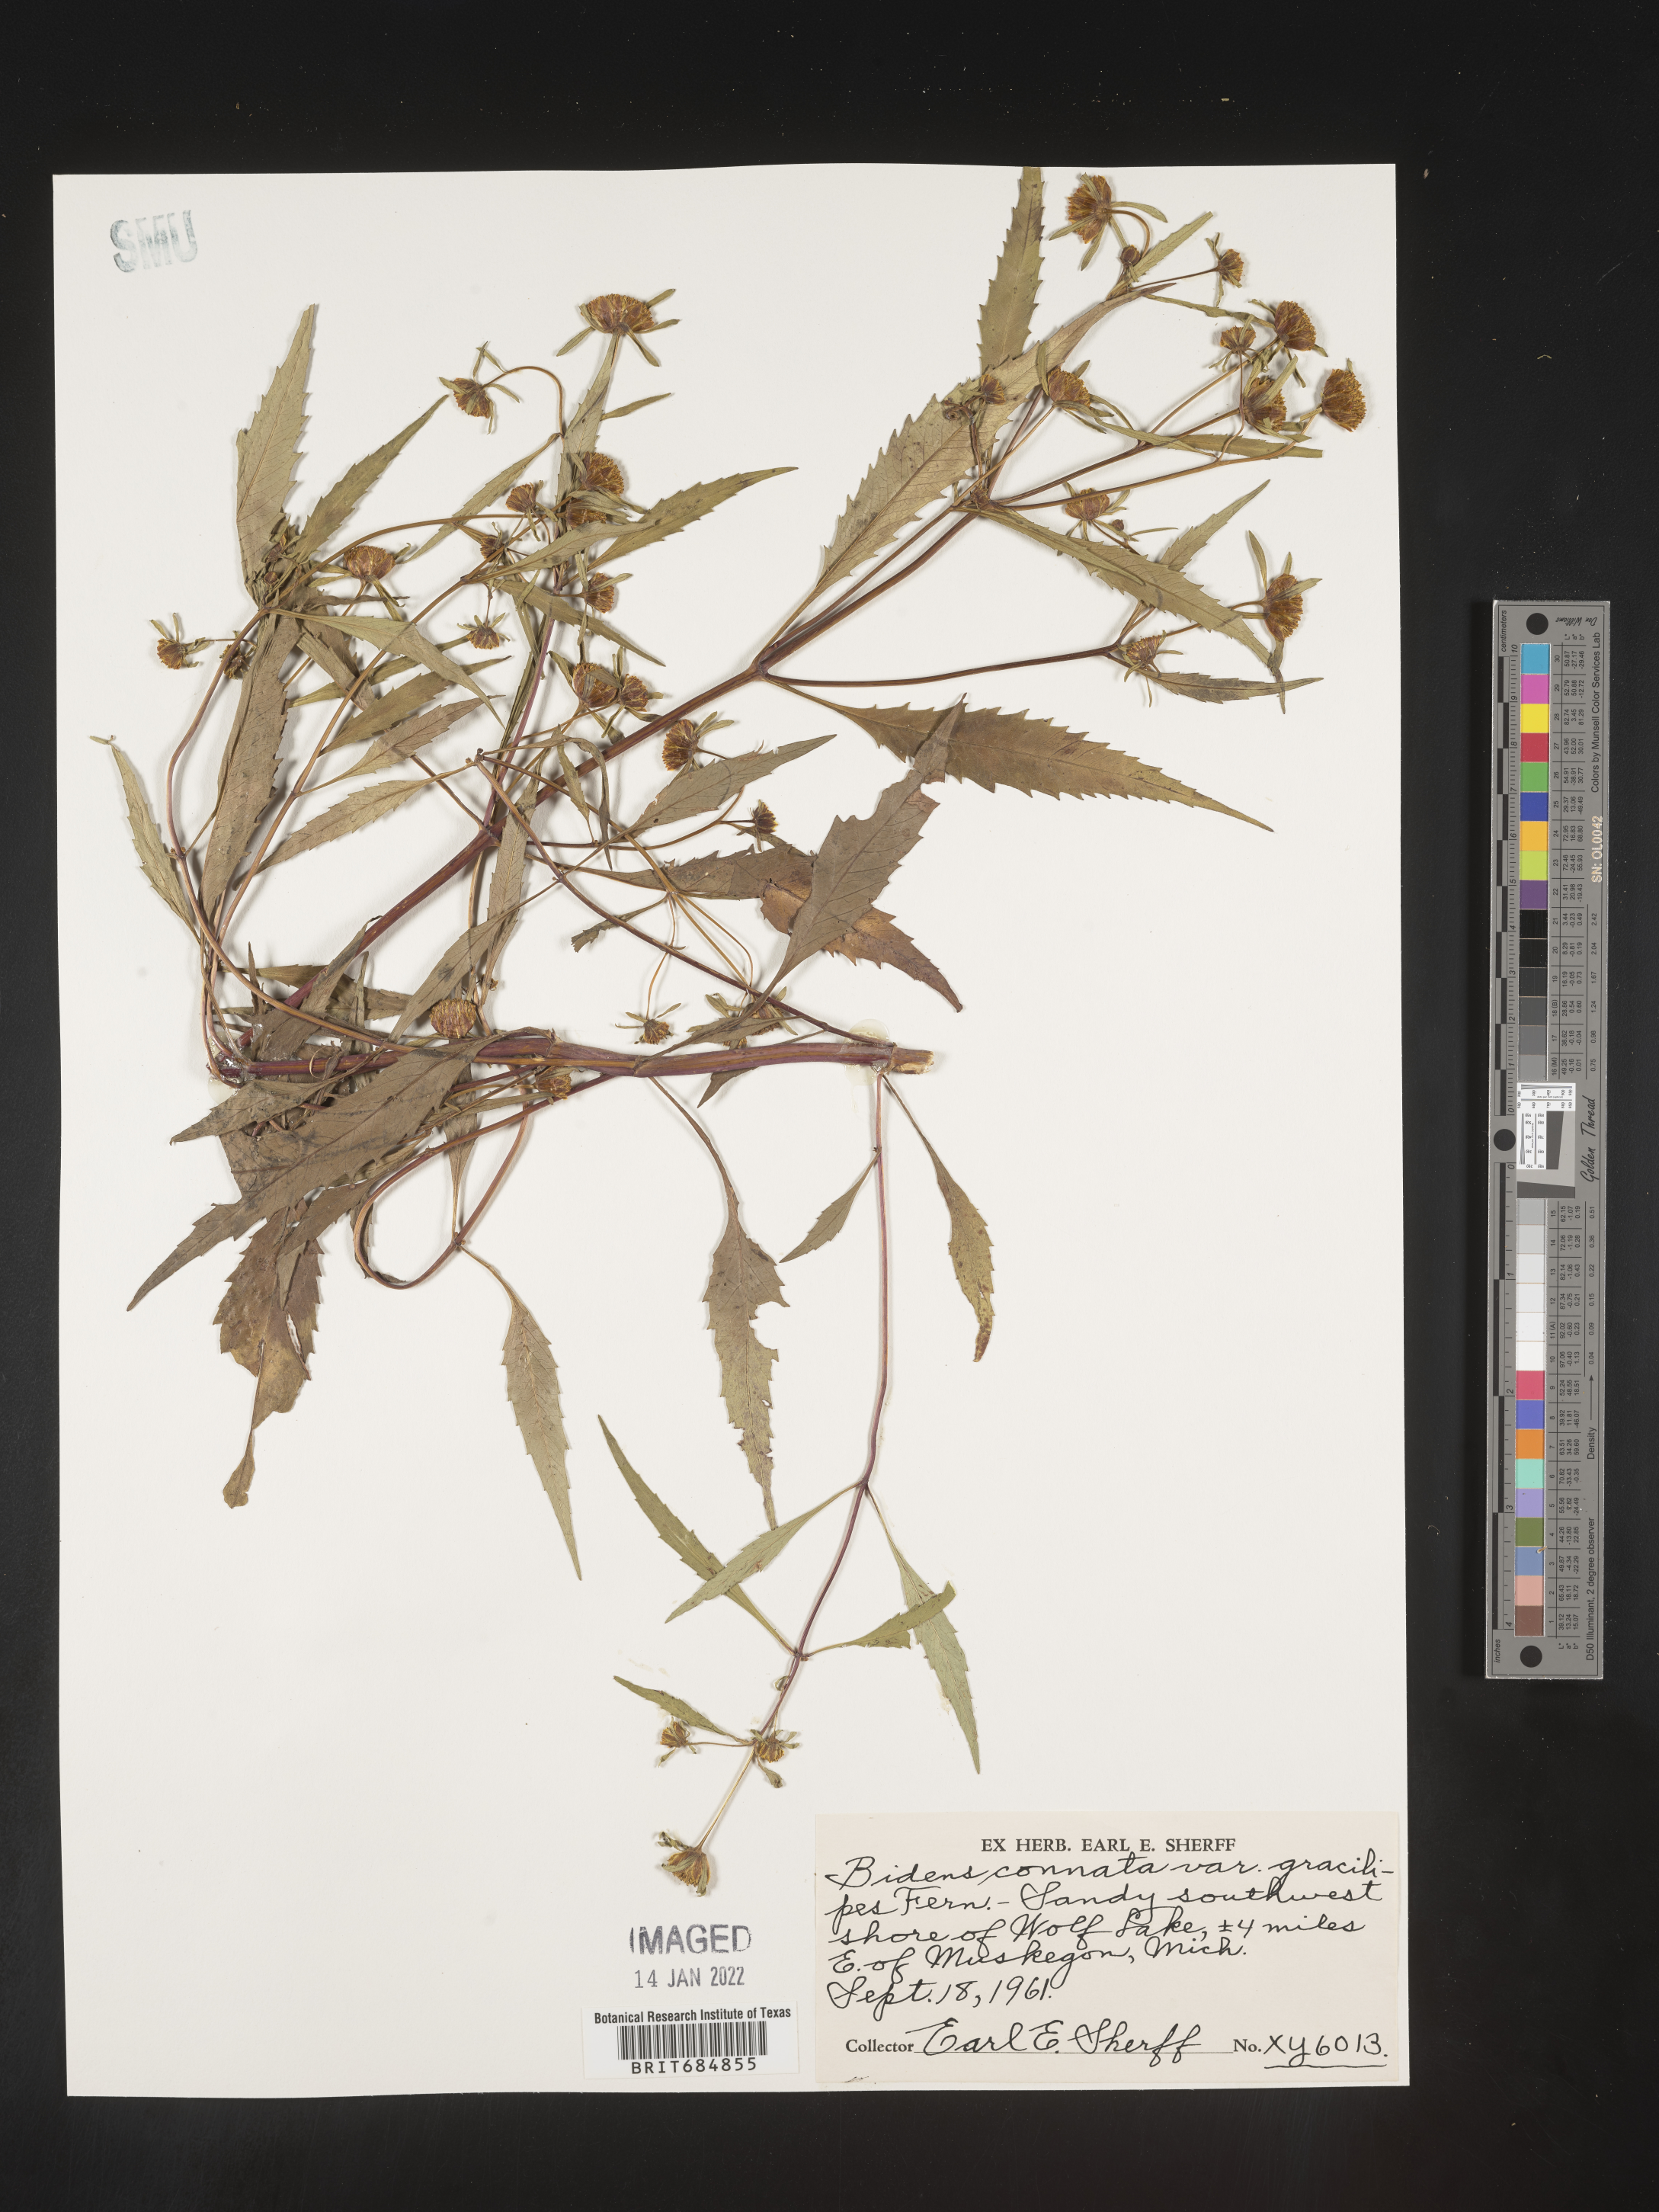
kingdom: Plantae
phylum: Tracheophyta
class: Magnoliopsida
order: Asterales
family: Asteraceae
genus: Bidens
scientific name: Bidens tripartita
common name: Trifid bur-marigold
